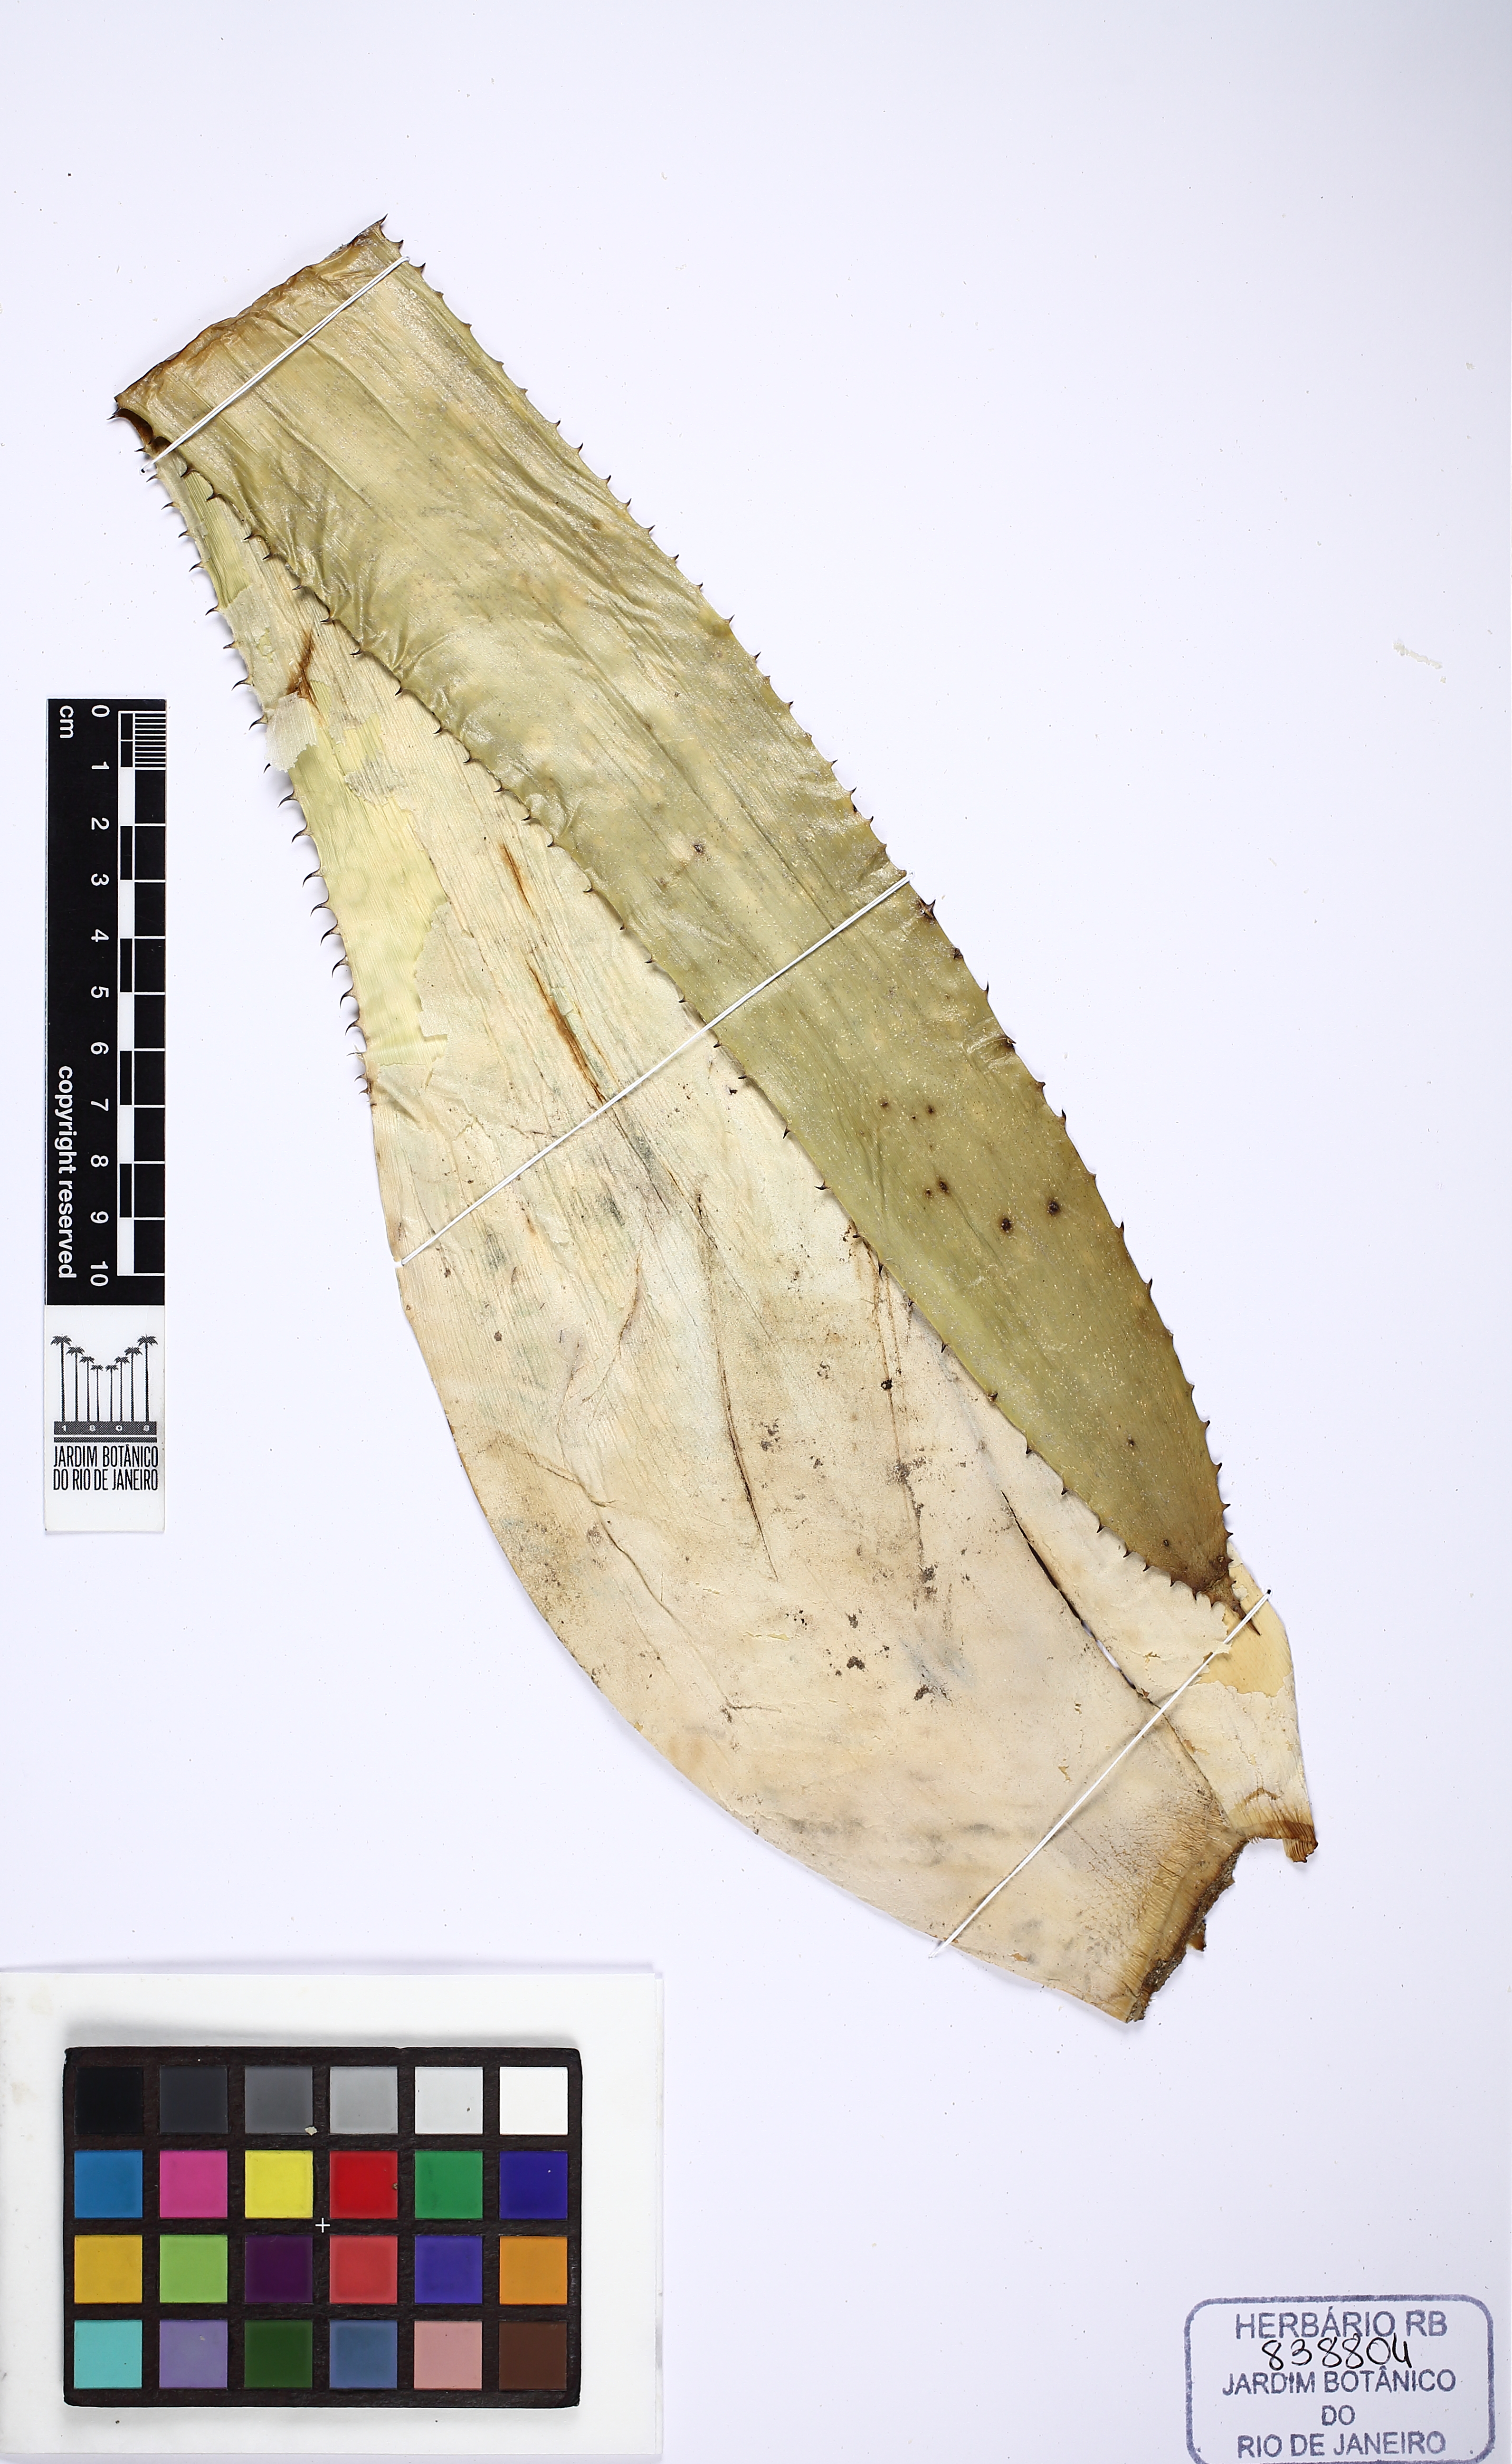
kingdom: Plantae
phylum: Tracheophyta
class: Liliopsida
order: Poales
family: Bromeliaceae
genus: Aechmea
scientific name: Aechmea castelnavii
